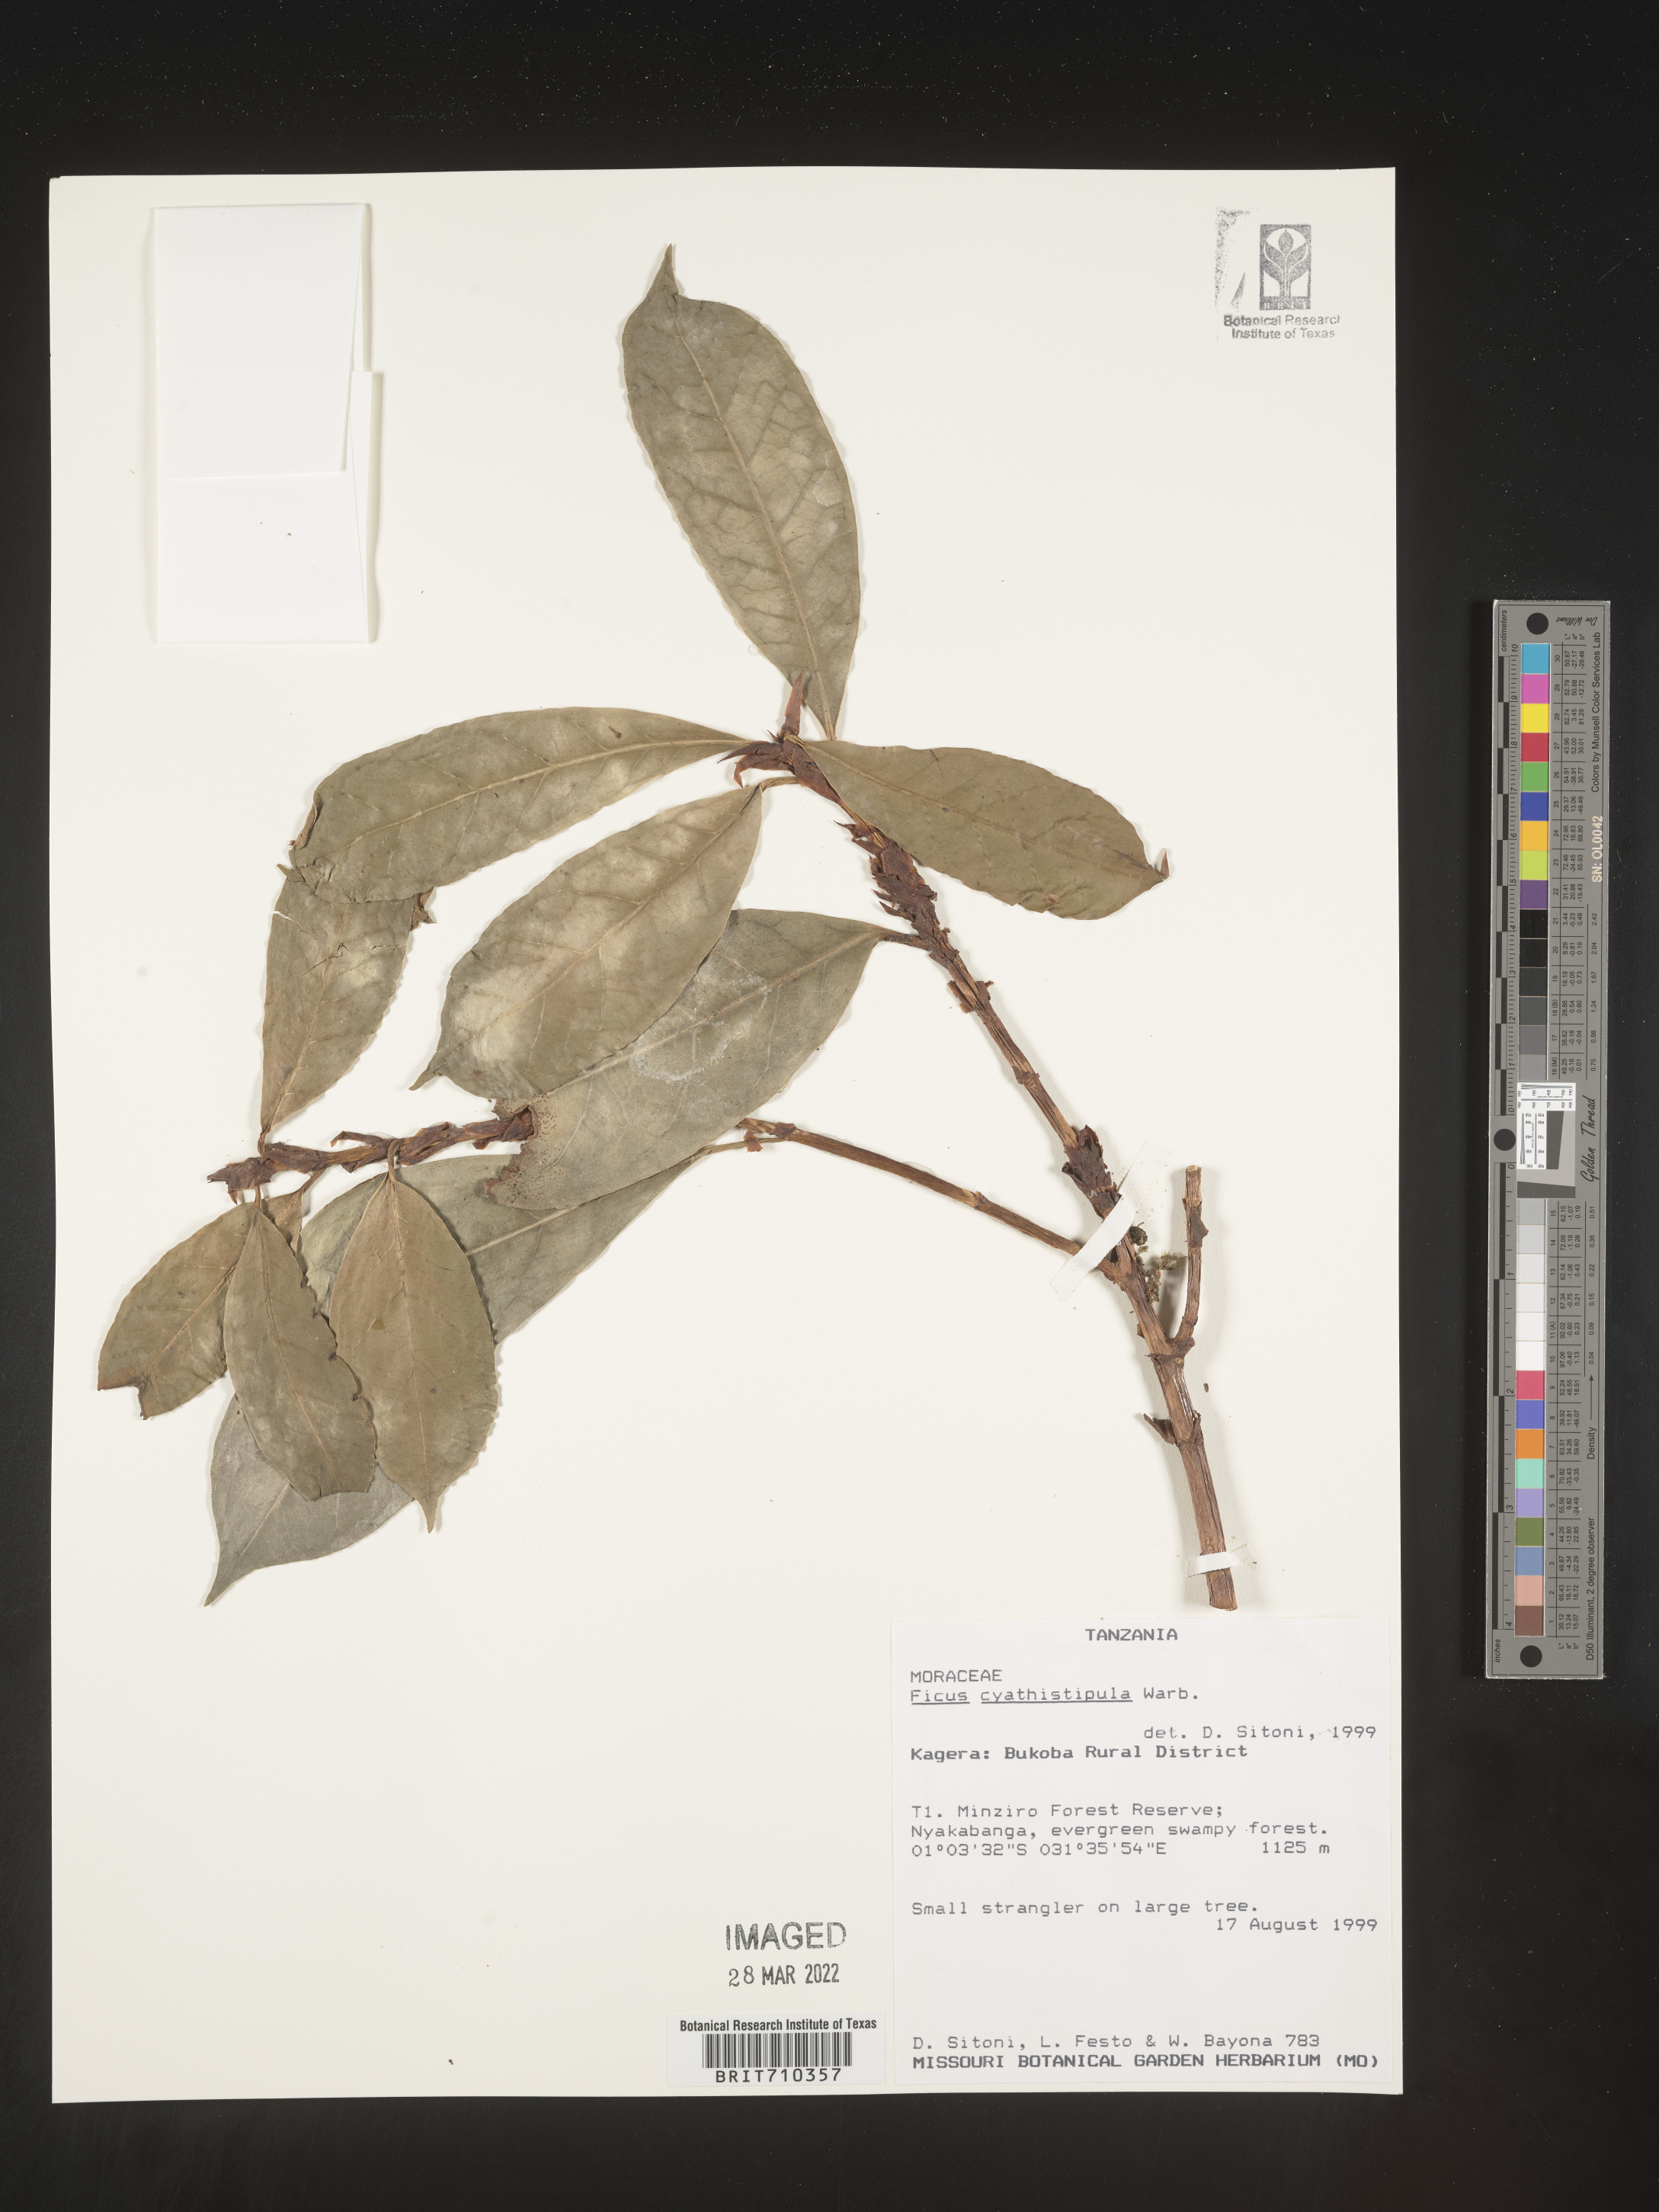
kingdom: Plantae
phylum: Tracheophyta
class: Magnoliopsida
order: Rosales
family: Moraceae
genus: Ficus
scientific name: Ficus
